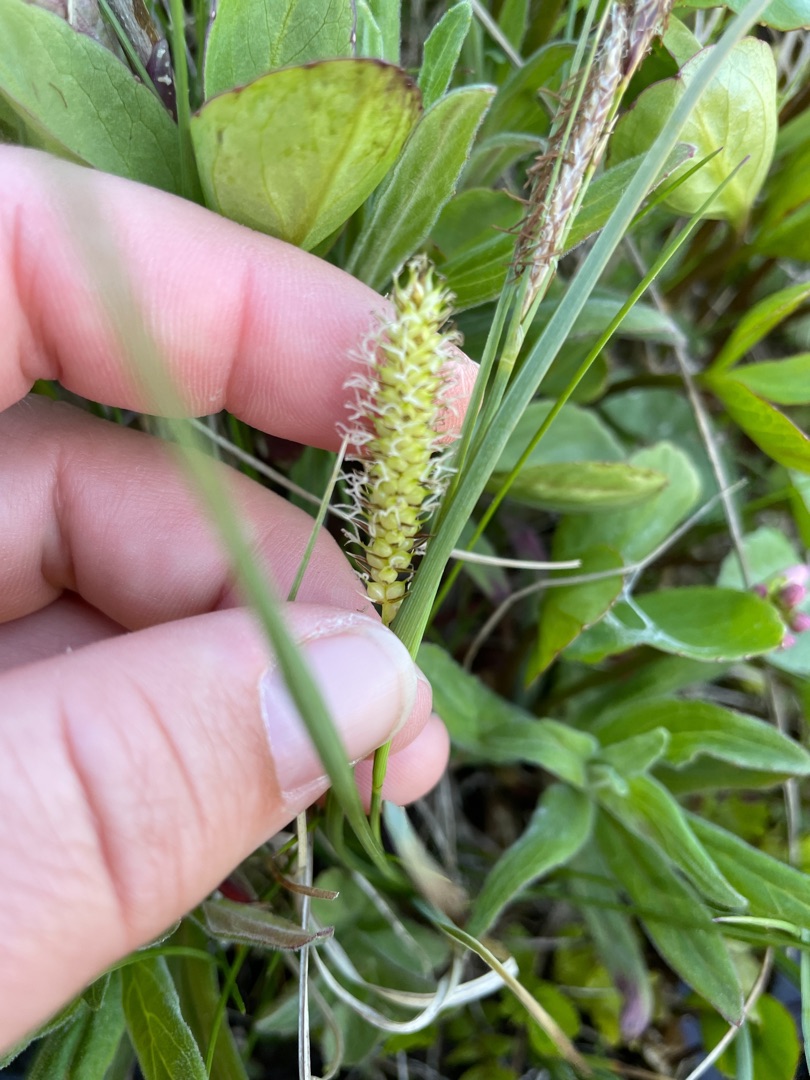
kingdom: Plantae
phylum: Tracheophyta
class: Liliopsida
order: Poales
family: Cyperaceae
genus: Carex
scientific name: Carex rostrata
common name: Næb-star
